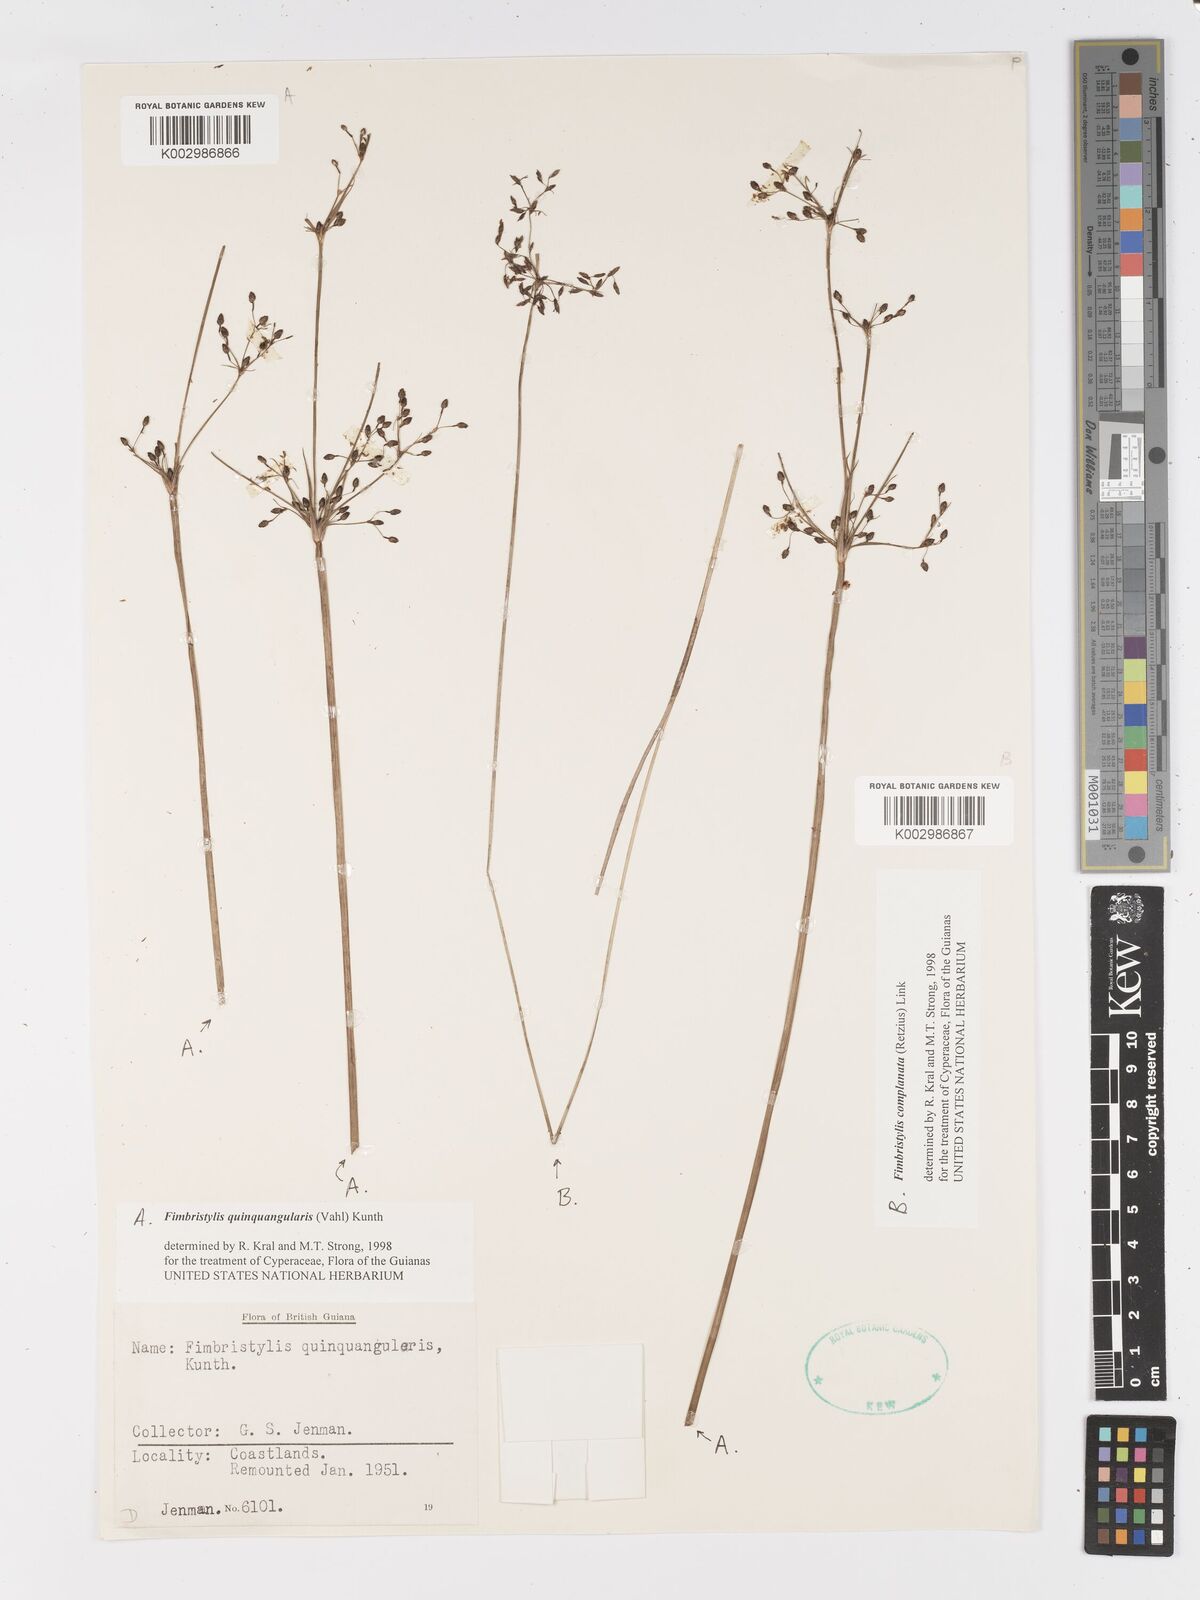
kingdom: Plantae
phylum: Tracheophyta
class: Liliopsida
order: Poales
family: Cyperaceae
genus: Fimbristylis
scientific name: Fimbristylis quinquangularis
